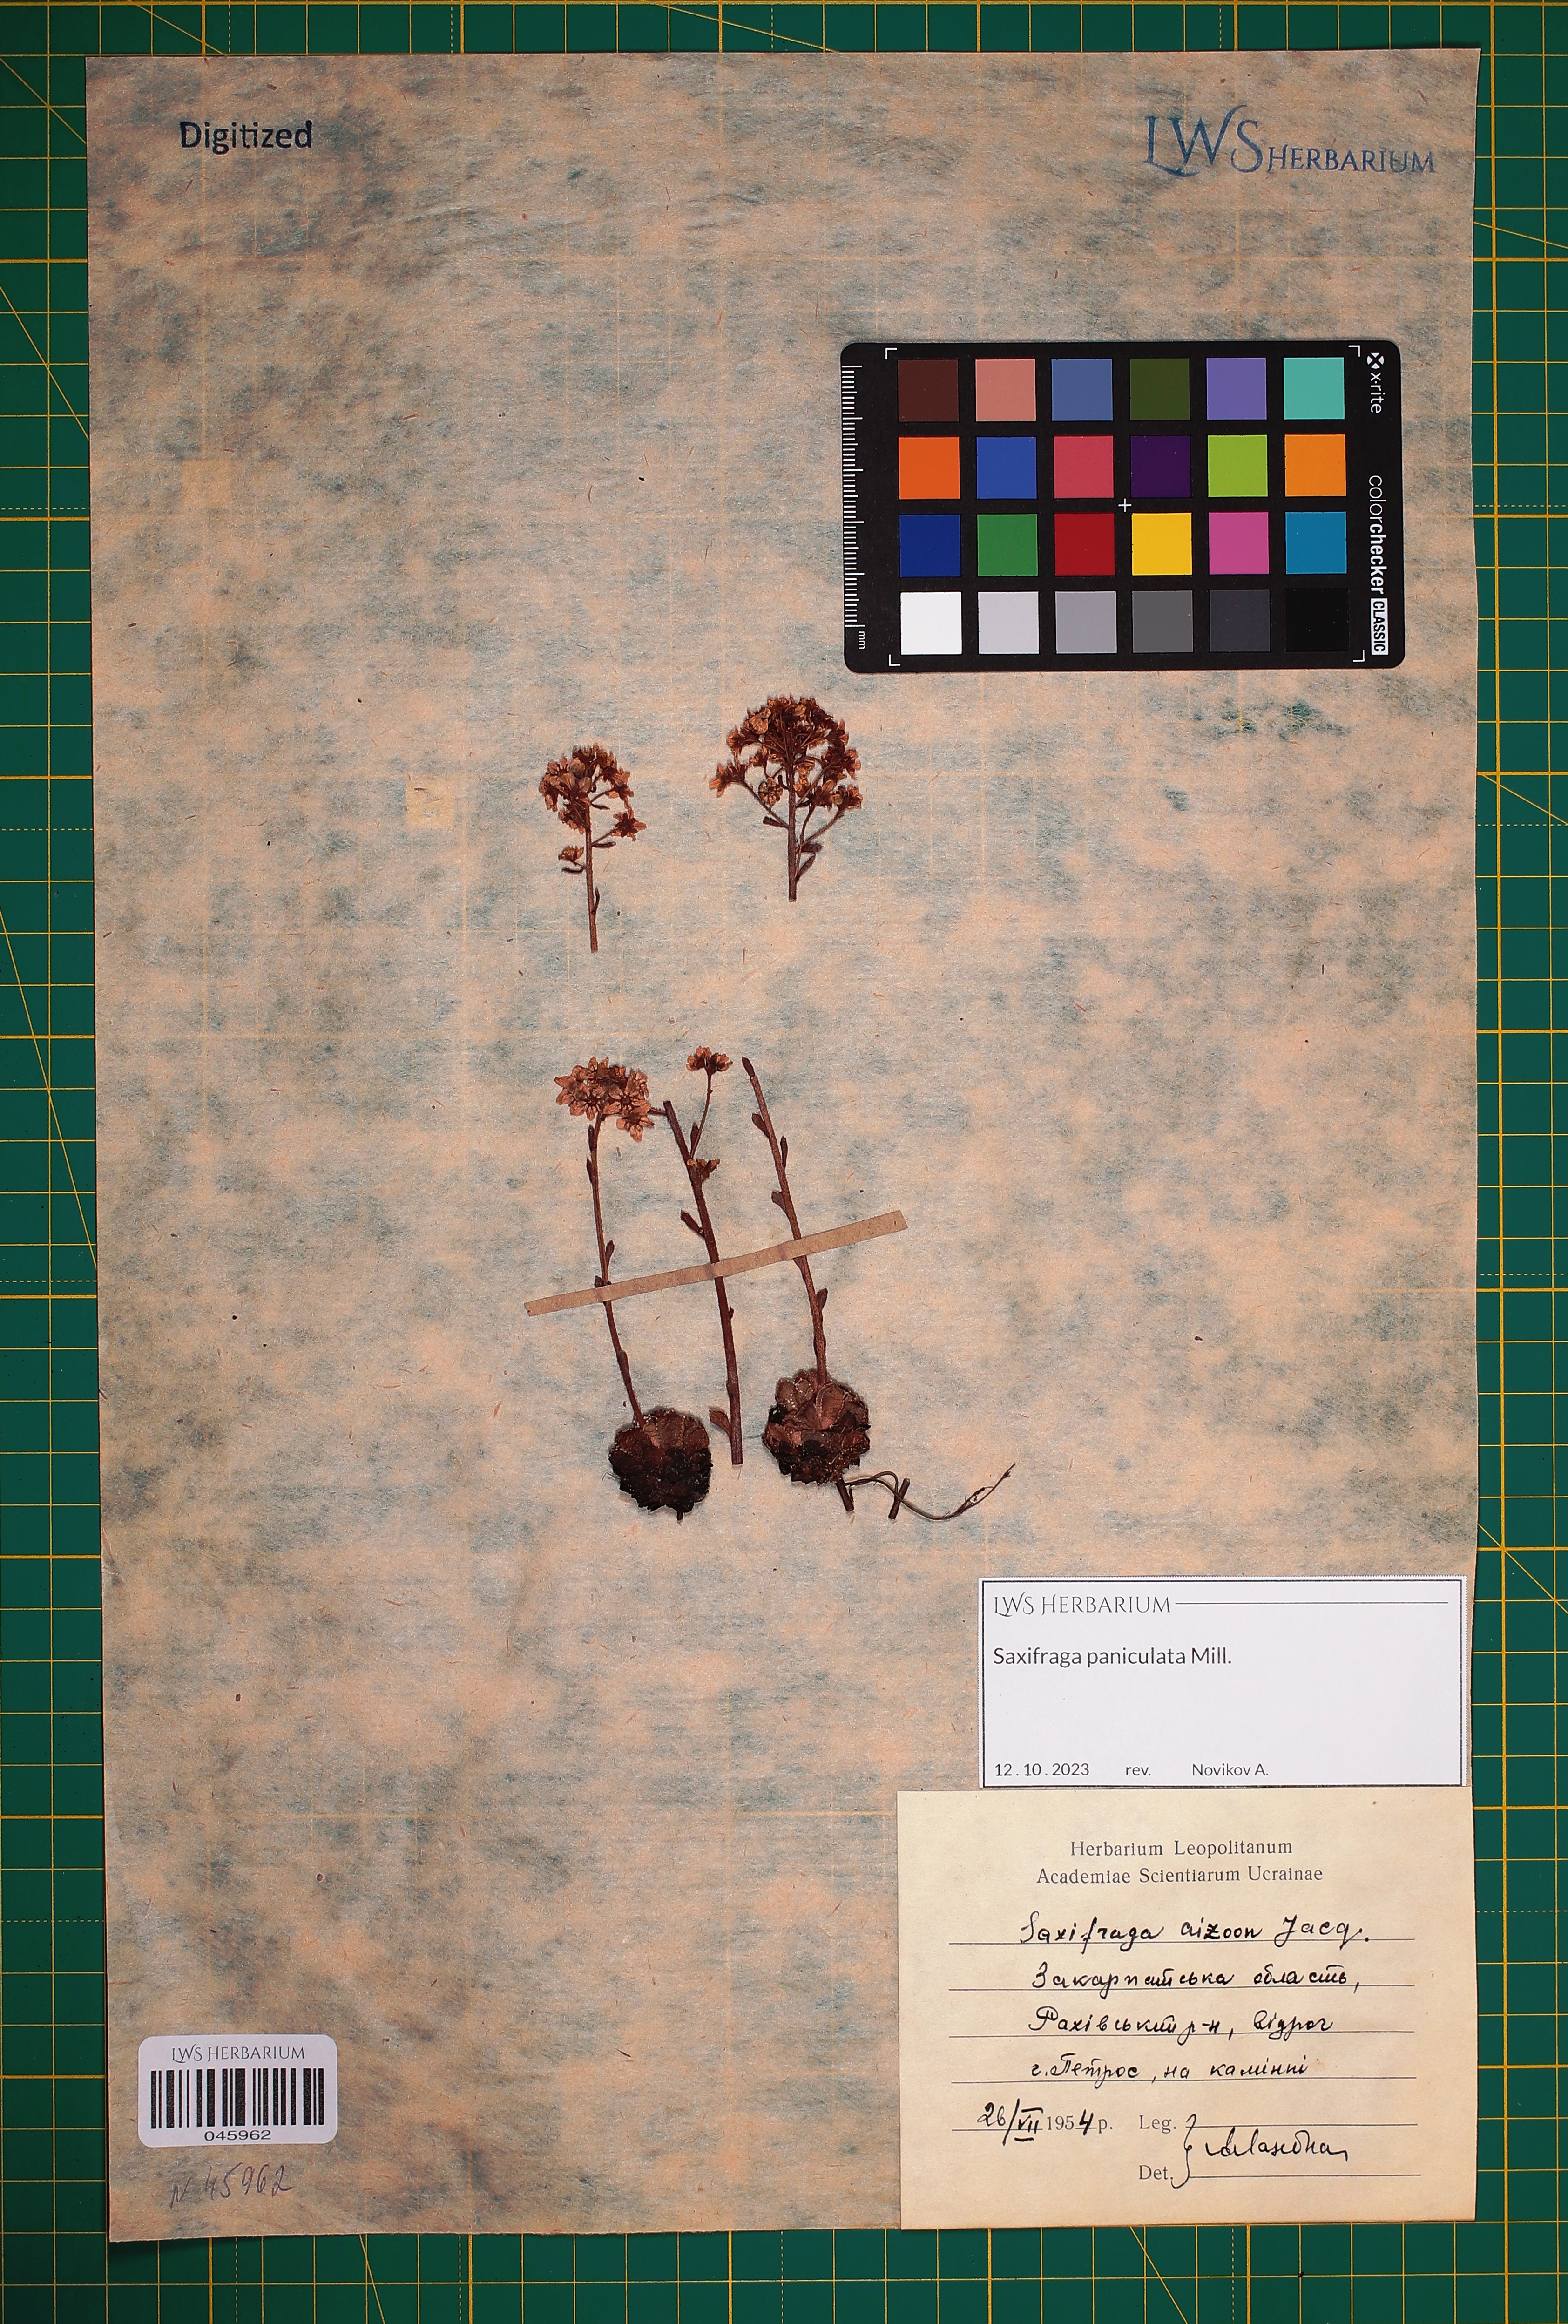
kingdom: Plantae
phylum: Tracheophyta
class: Magnoliopsida
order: Saxifragales
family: Saxifragaceae
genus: Saxifraga
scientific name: Saxifraga paniculata
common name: Livelong saxifrage
